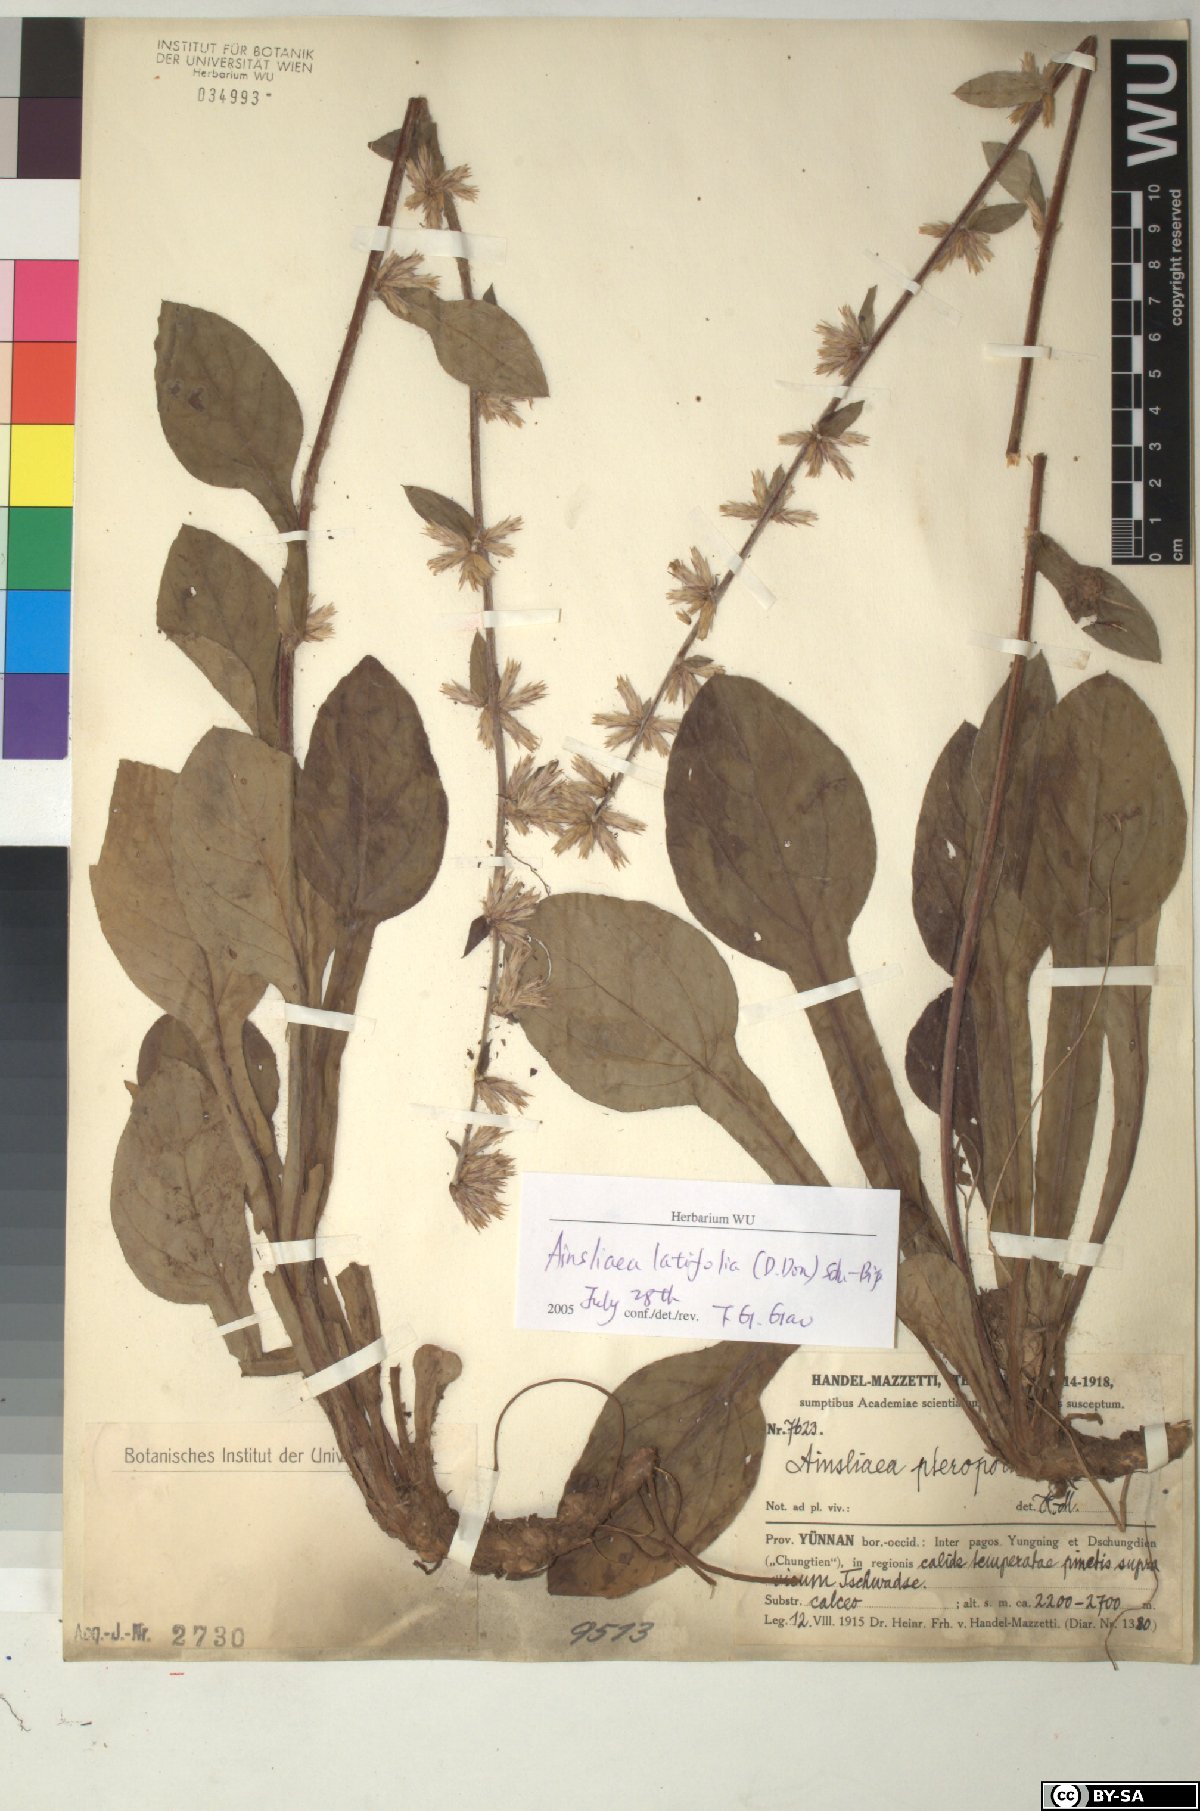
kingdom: Plantae
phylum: Tracheophyta
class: Magnoliopsida
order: Asterales
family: Asteraceae
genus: Ainsliaea
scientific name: Ainsliaea latifolia
